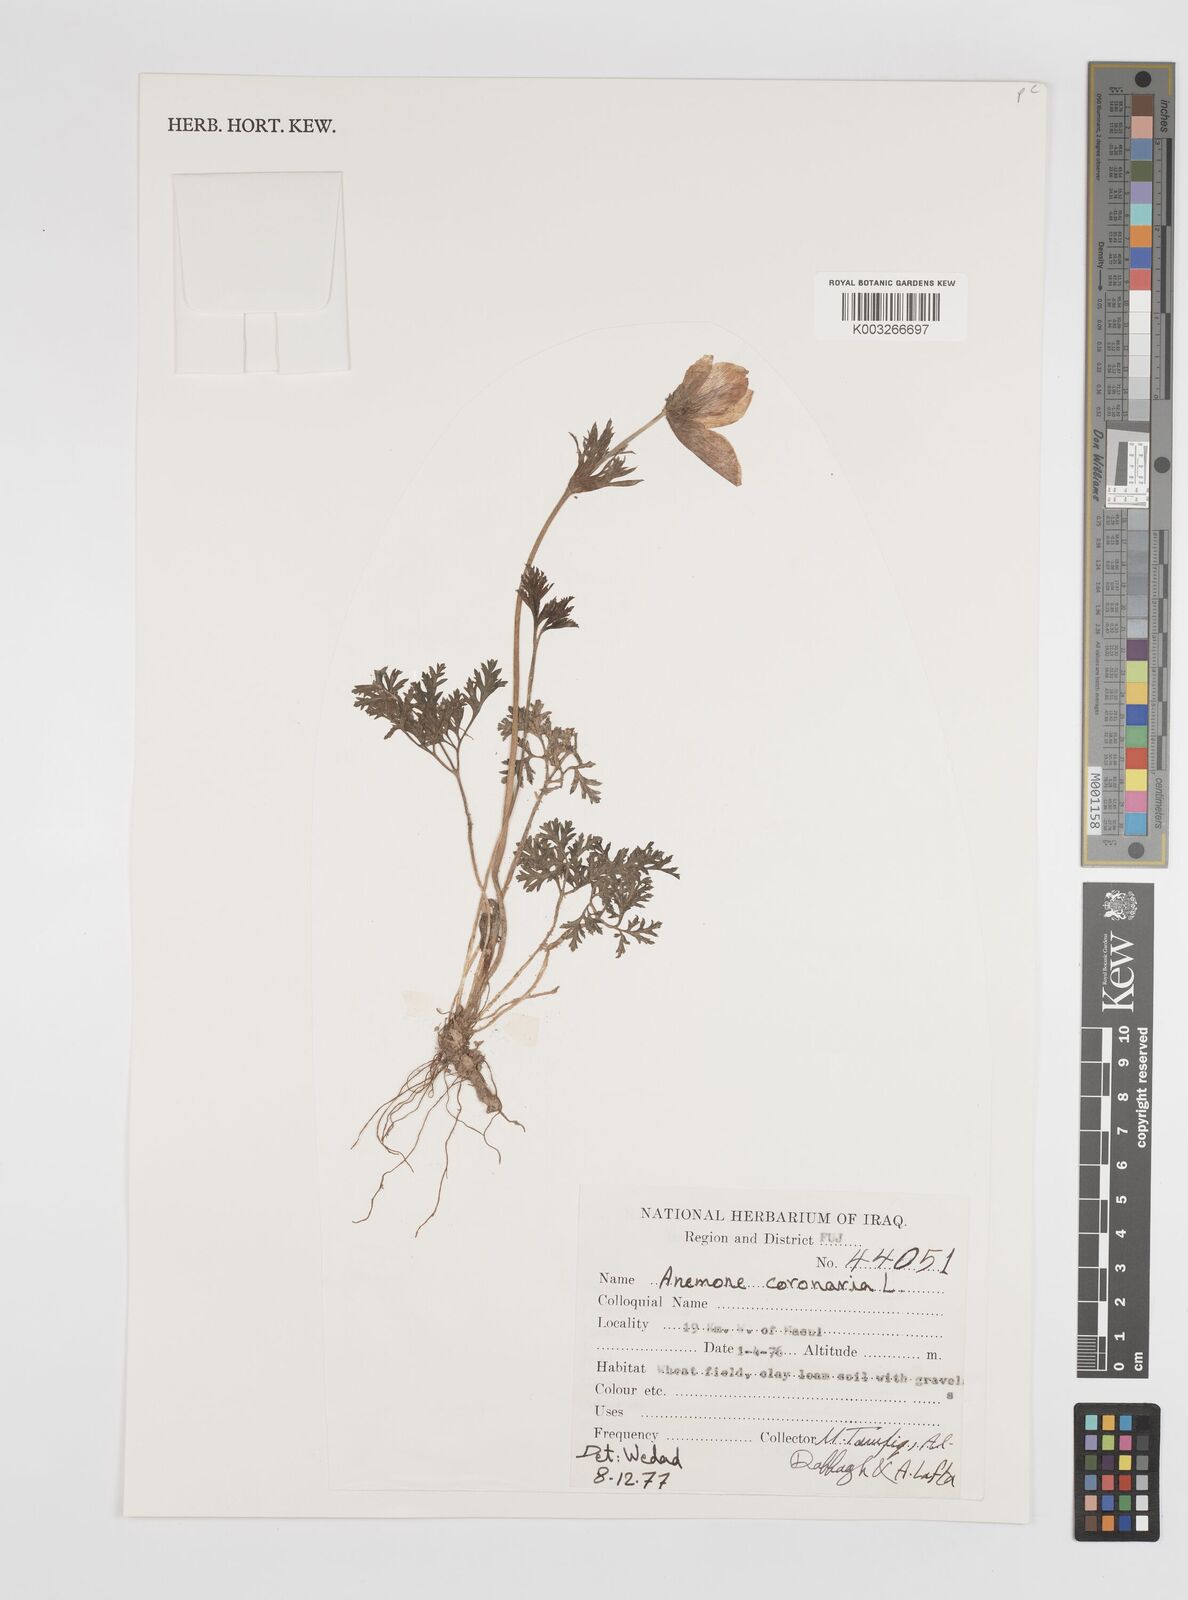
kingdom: Plantae
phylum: Tracheophyta
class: Magnoliopsida
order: Ranunculales
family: Ranunculaceae
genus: Anemone
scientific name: Anemone coronaria
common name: Poppy anemone
